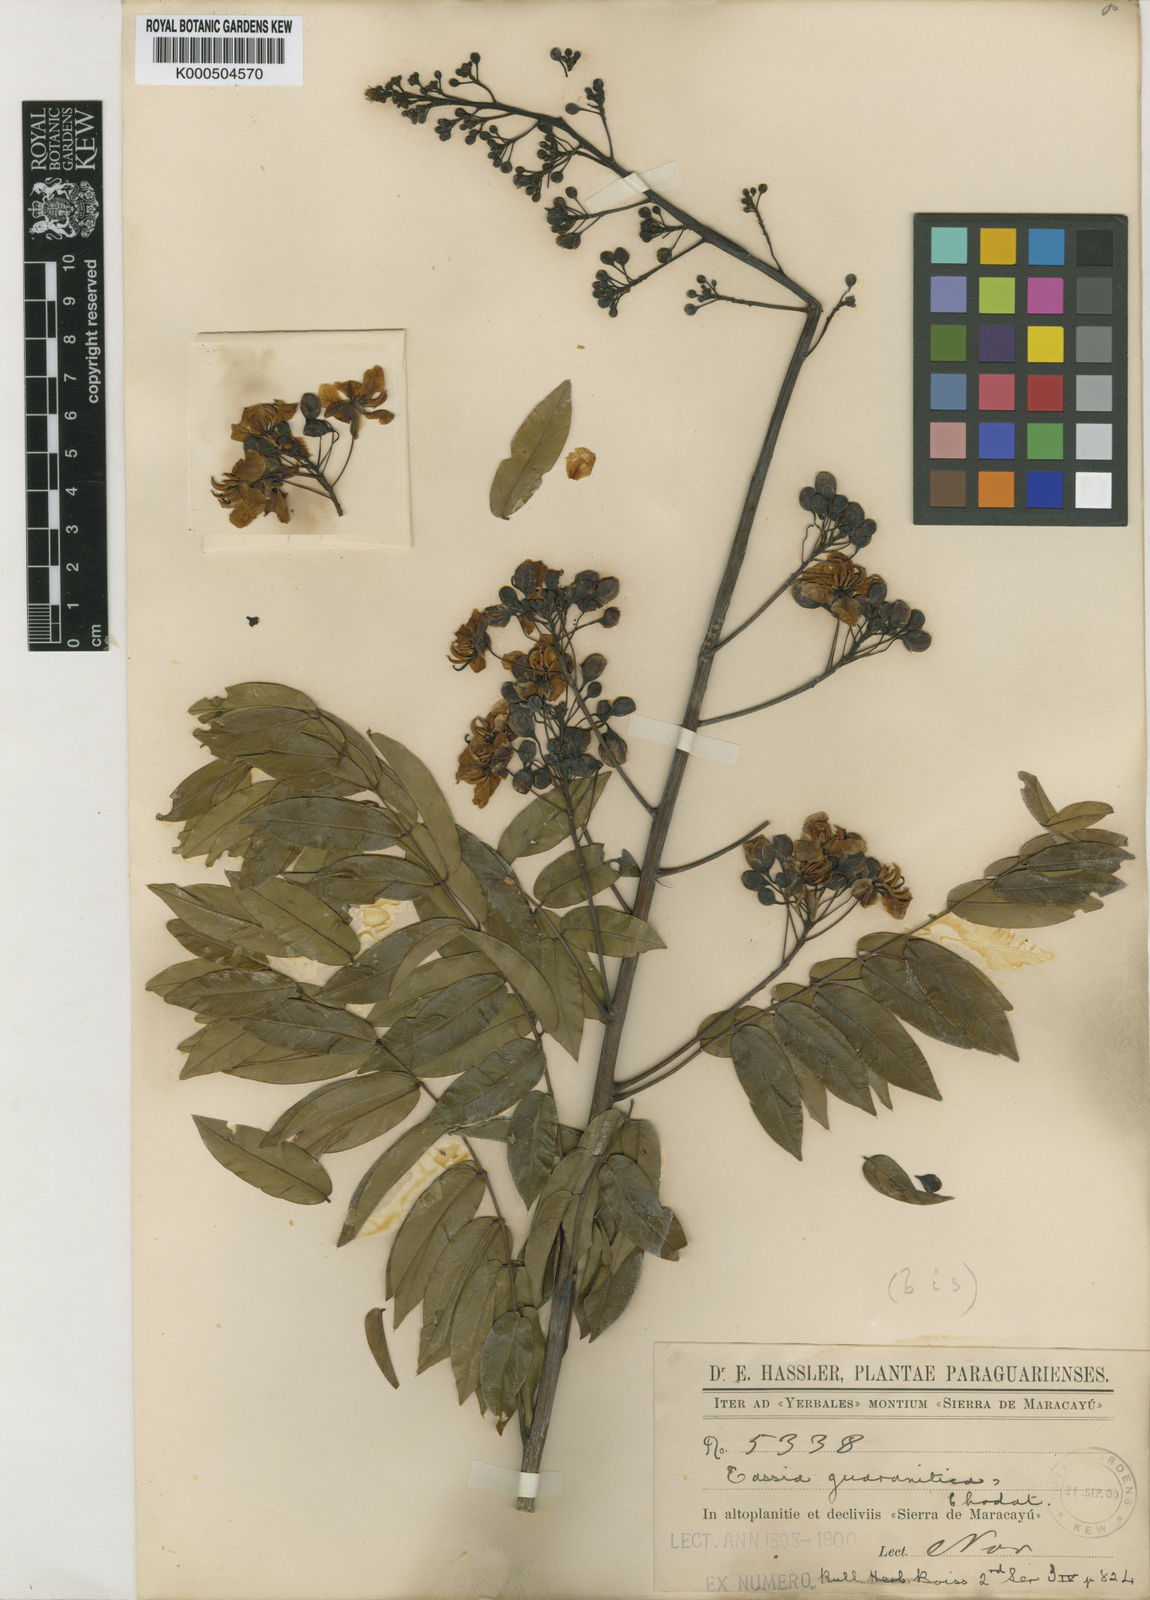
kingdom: Plantae
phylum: Tracheophyta
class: Magnoliopsida
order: Fabales
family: Fabaceae
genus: Senna
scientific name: Senna silvestris
